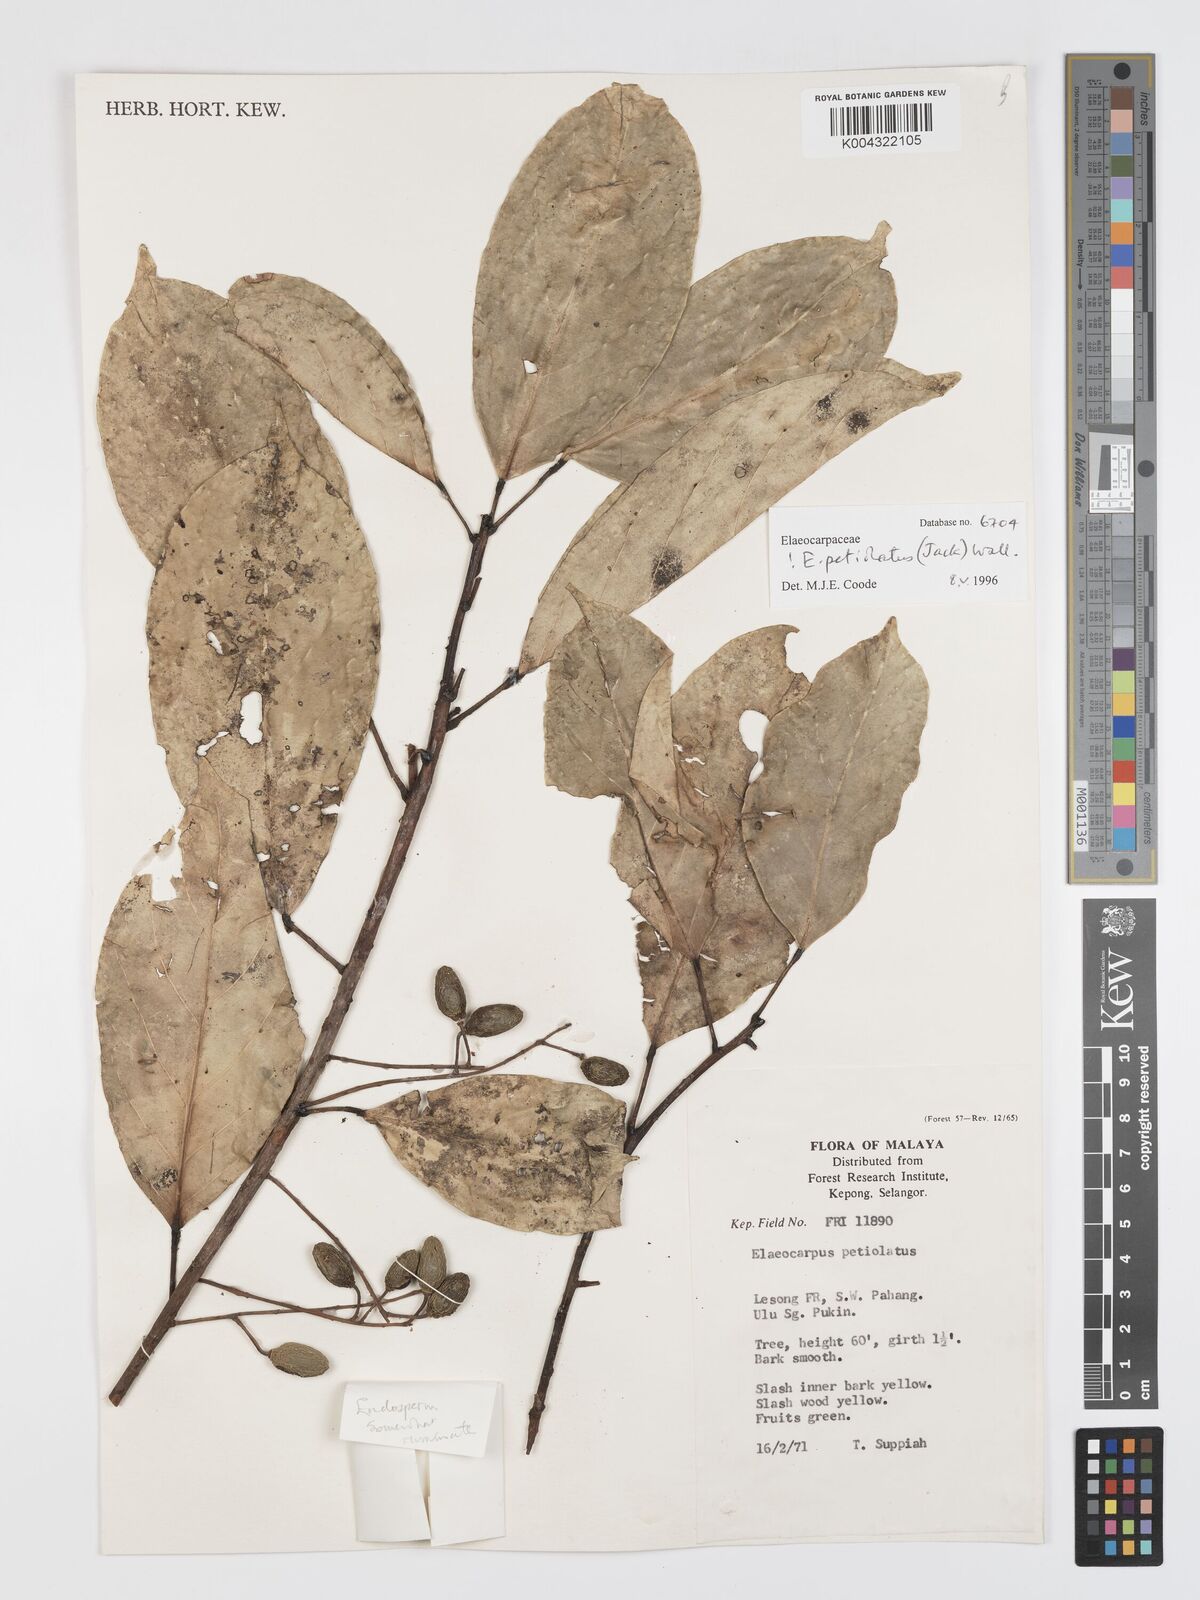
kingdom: Plantae
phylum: Tracheophyta
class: Magnoliopsida
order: Oxalidales
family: Elaeocarpaceae
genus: Elaeocarpus
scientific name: Elaeocarpus petiolatus
